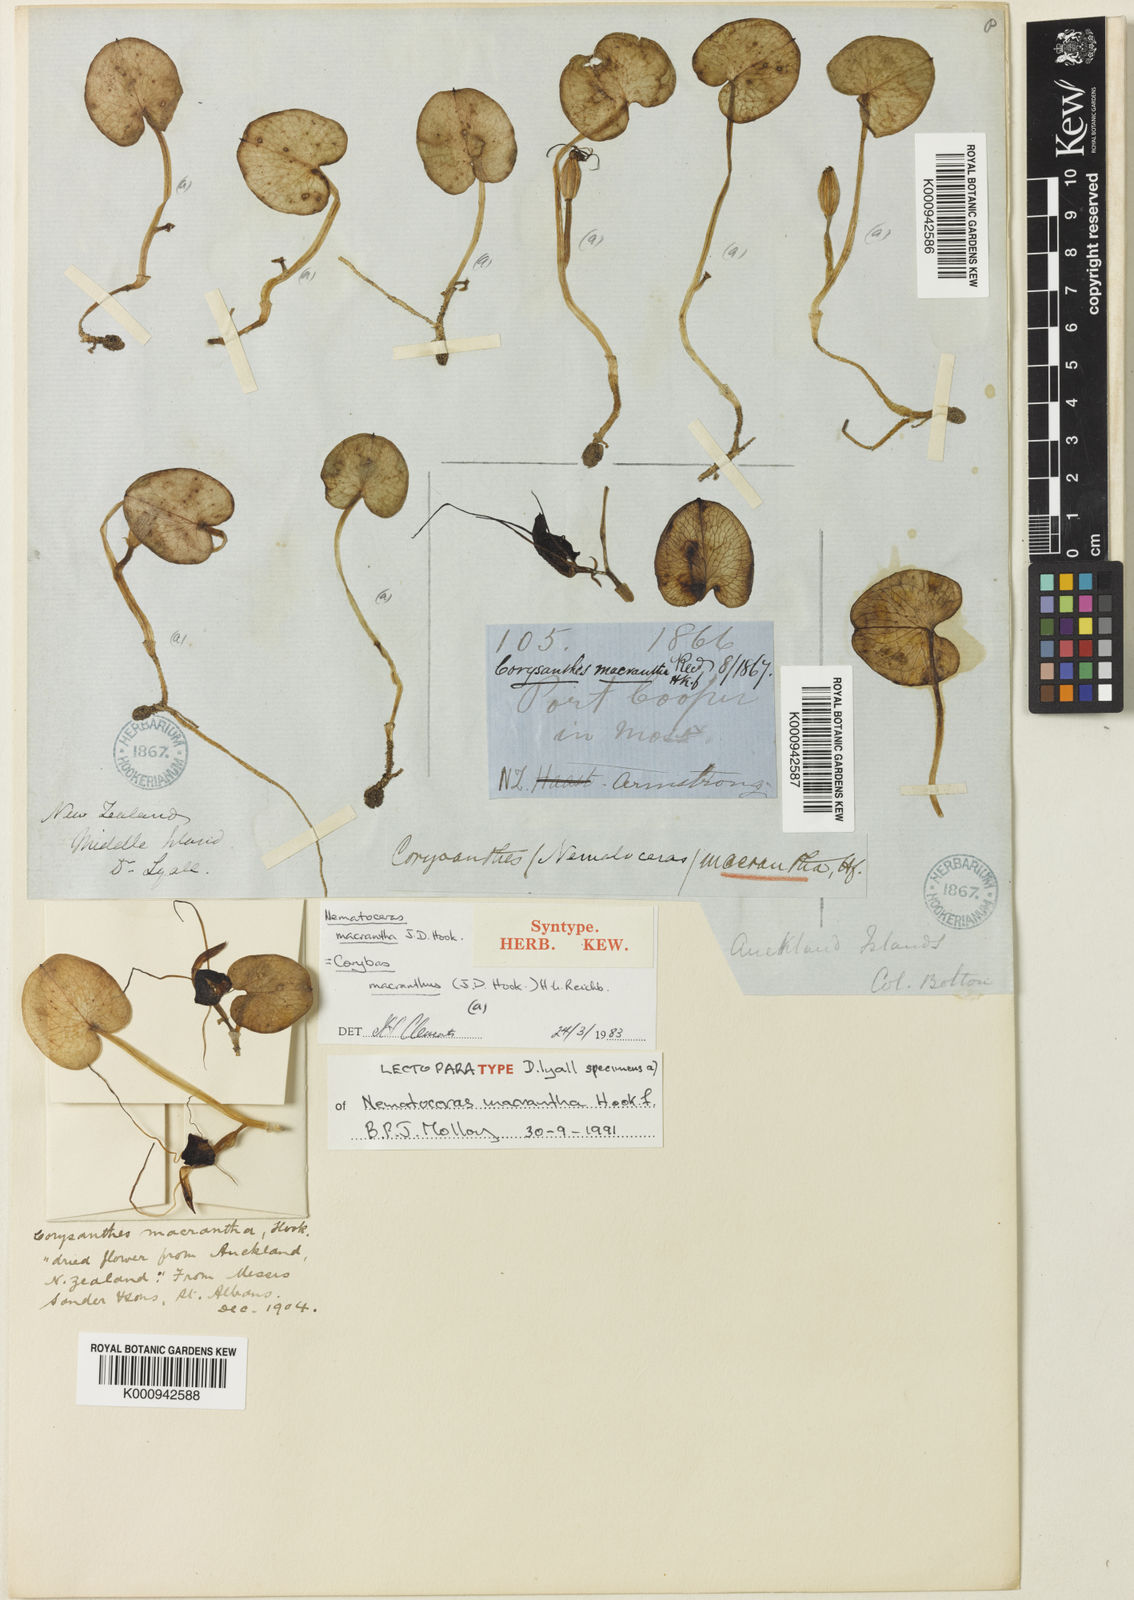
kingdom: Plantae
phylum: Tracheophyta
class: Liliopsida
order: Asparagales
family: Orchidaceae
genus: Corybas
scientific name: Corybas macranthus
